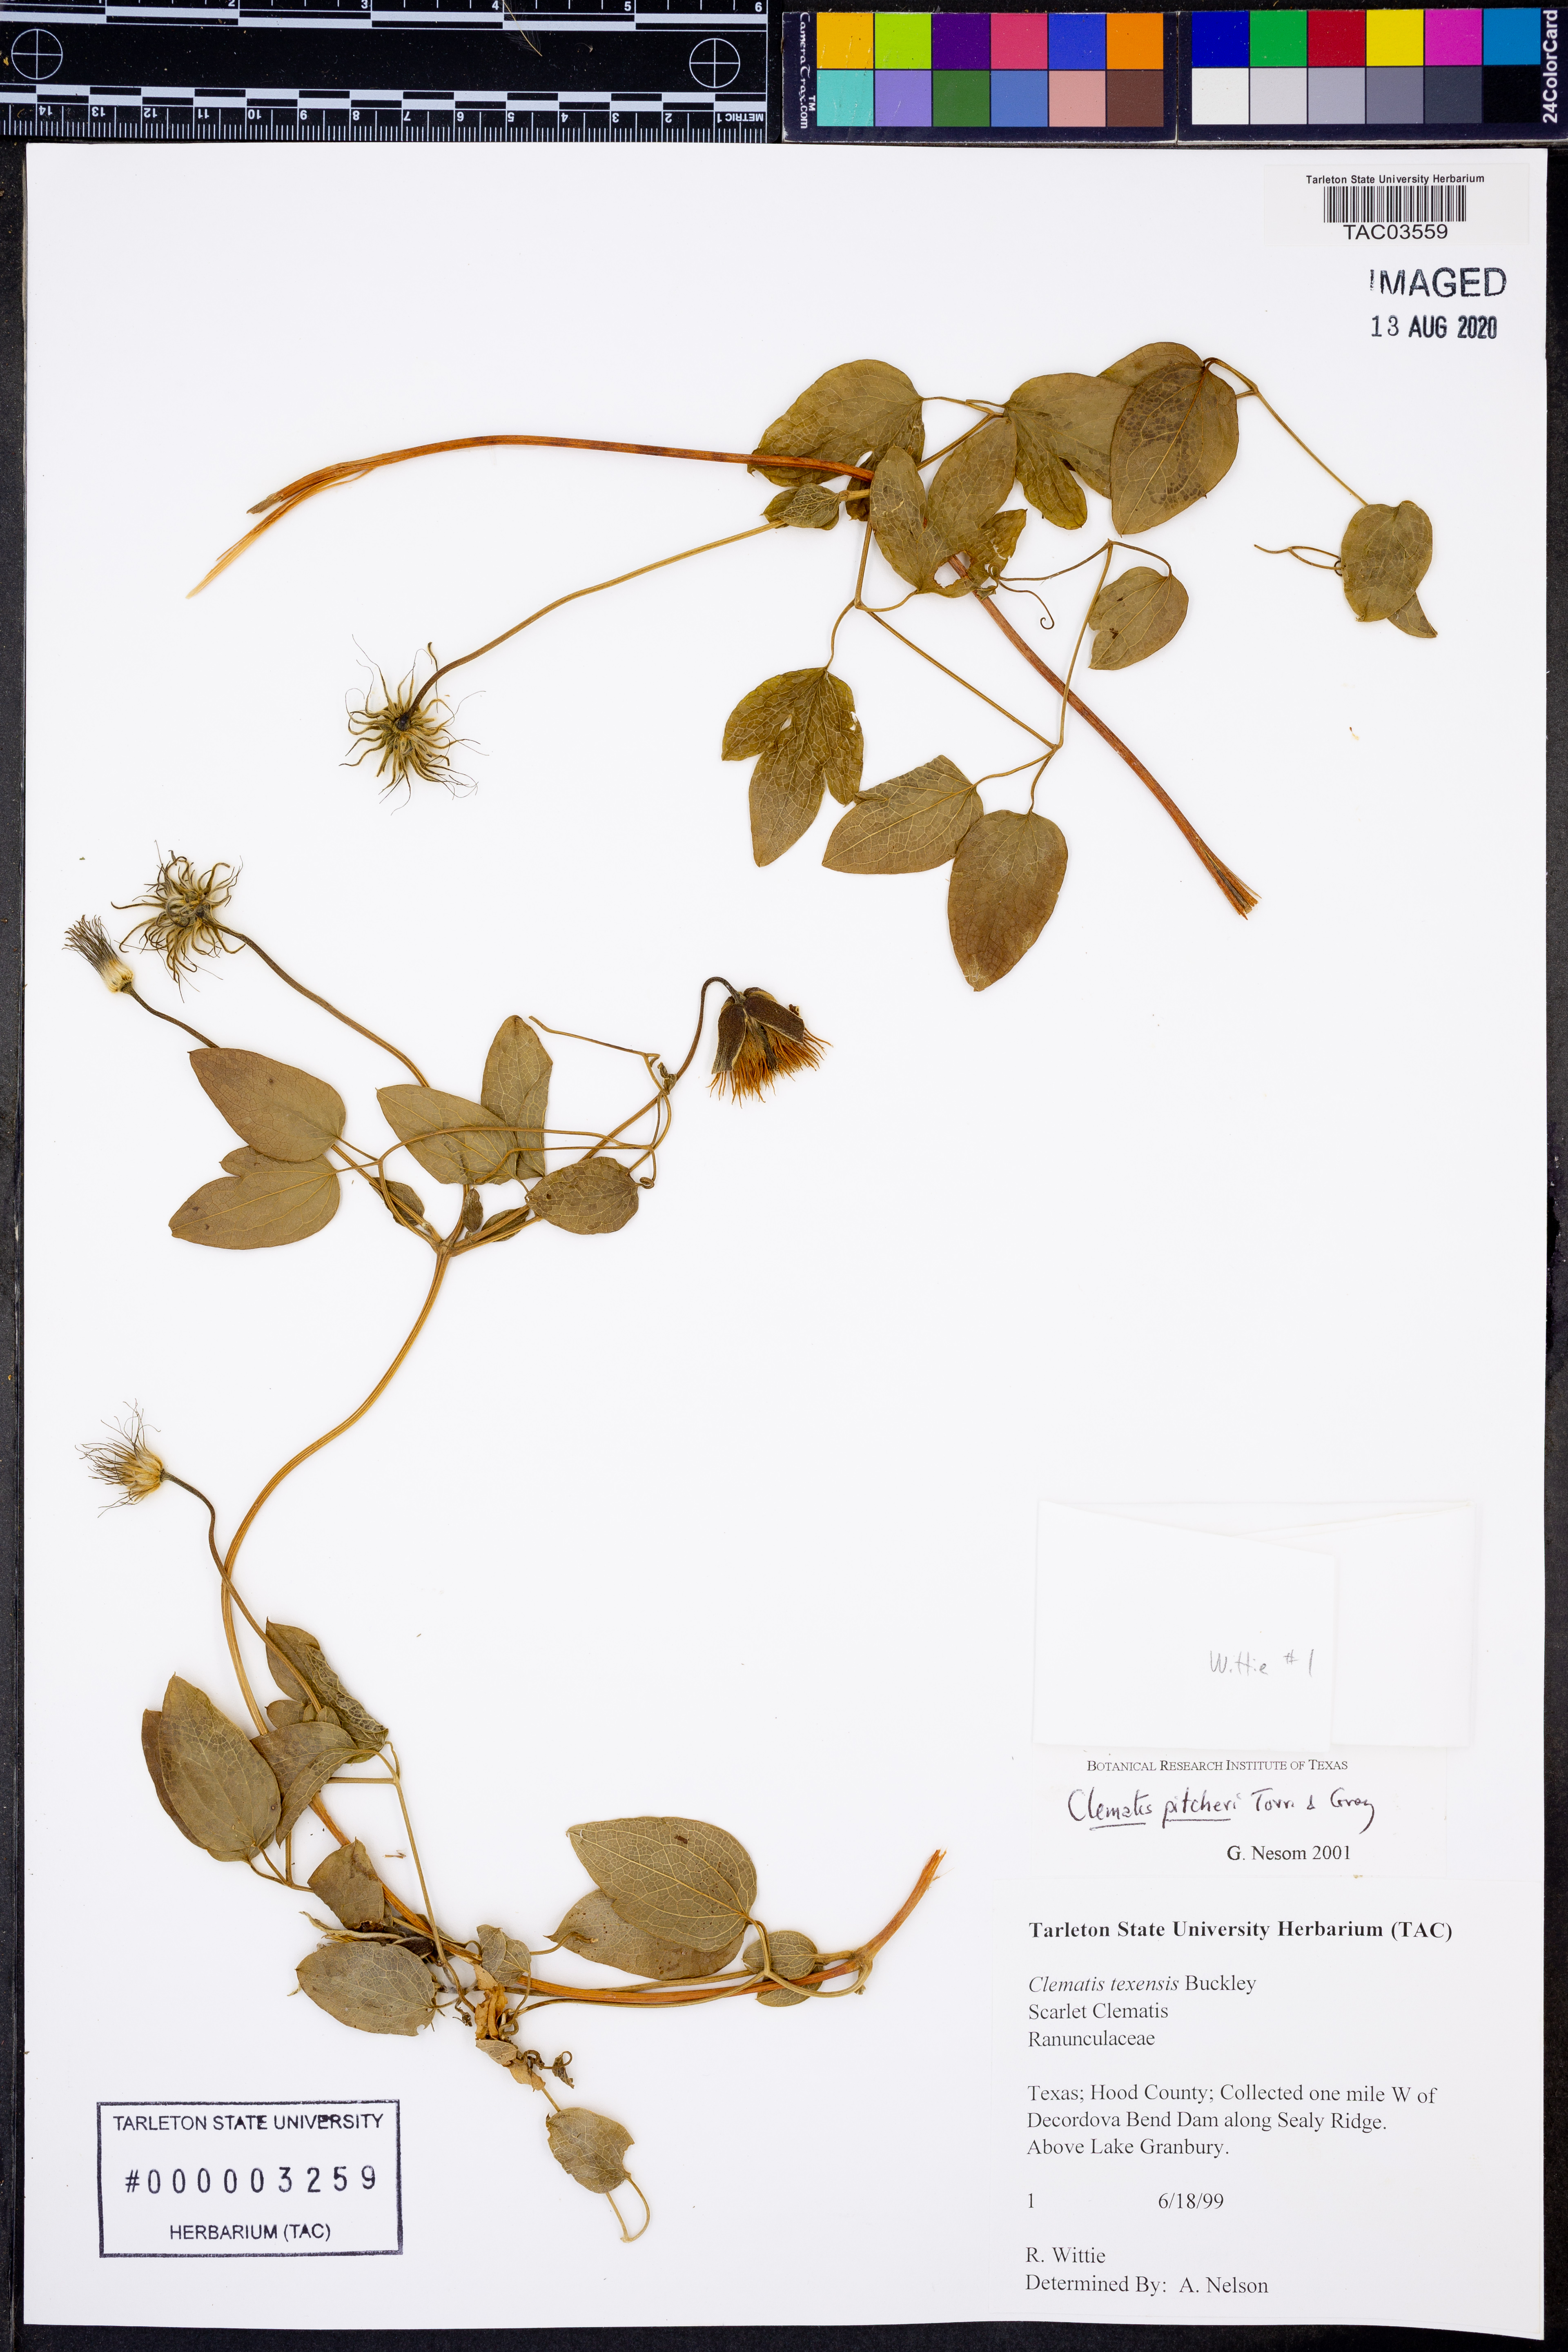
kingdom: Plantae
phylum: Tracheophyta
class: Magnoliopsida
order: Ranunculales
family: Ranunculaceae
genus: Clematis
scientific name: Clematis pitcheri
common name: Bellflower clematis
